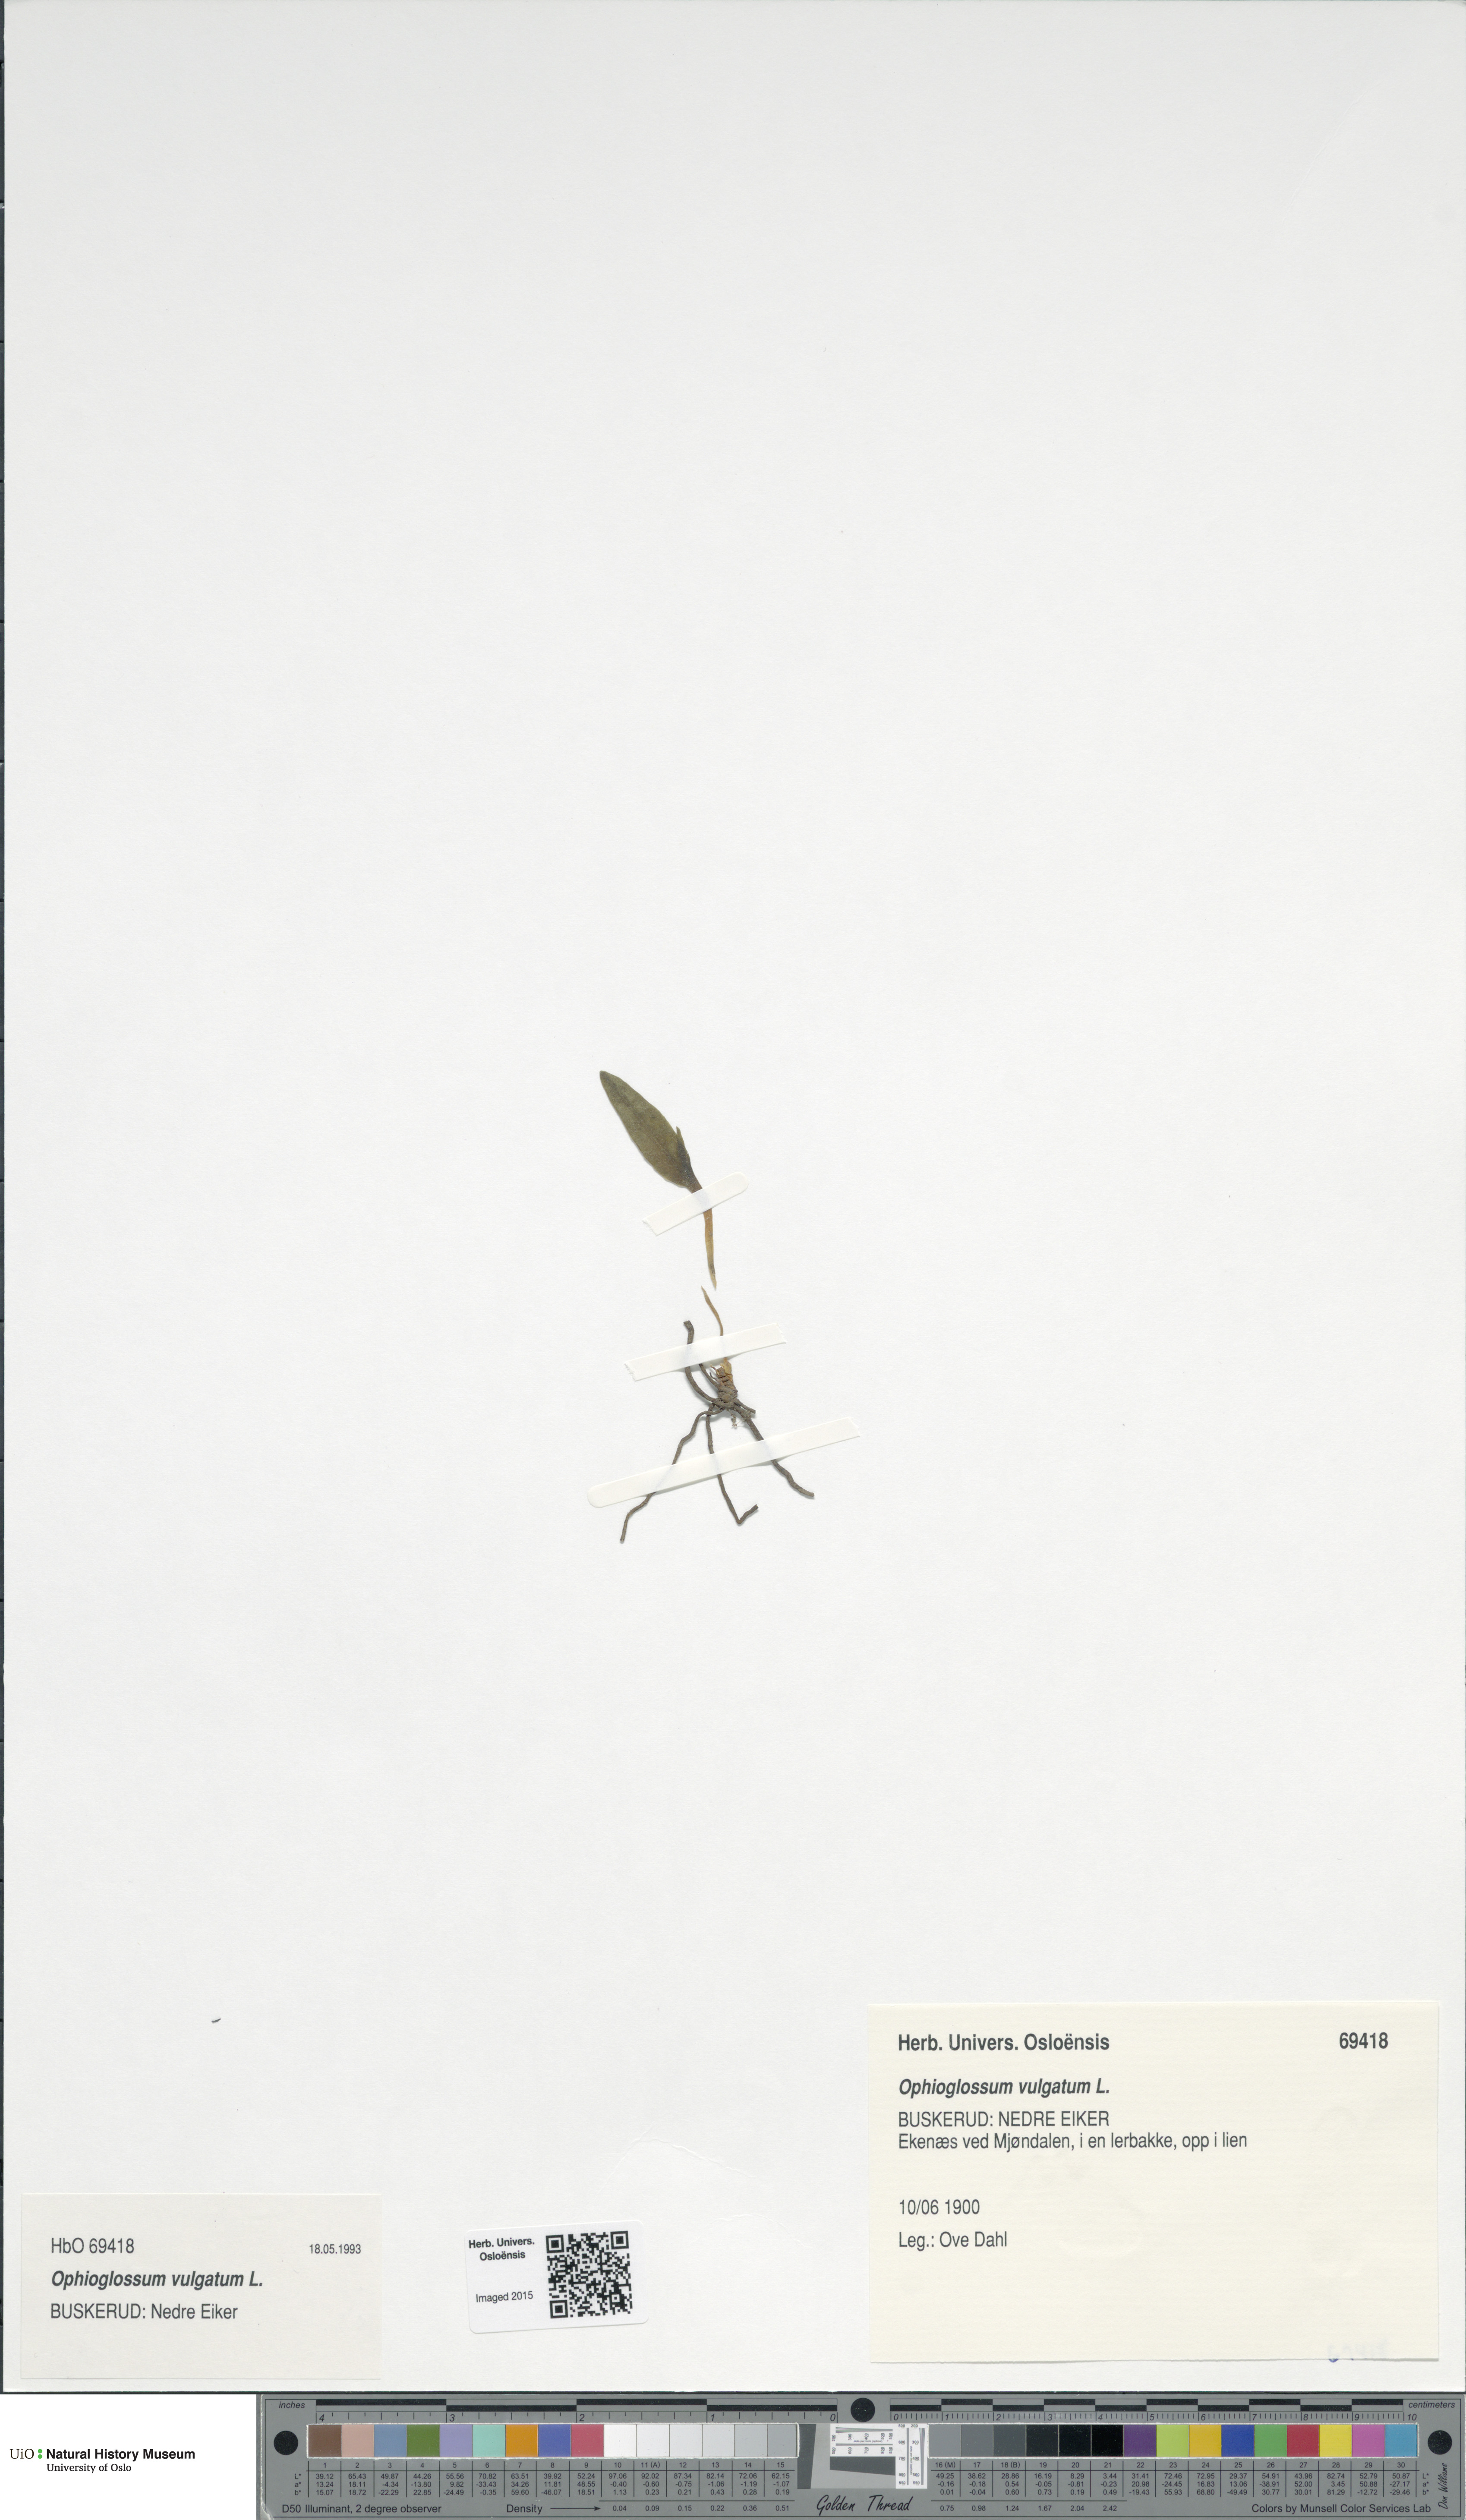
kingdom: Plantae
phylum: Tracheophyta
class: Polypodiopsida
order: Ophioglossales
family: Ophioglossaceae
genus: Ophioglossum
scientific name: Ophioglossum vulgatum
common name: Adder's-tongue
